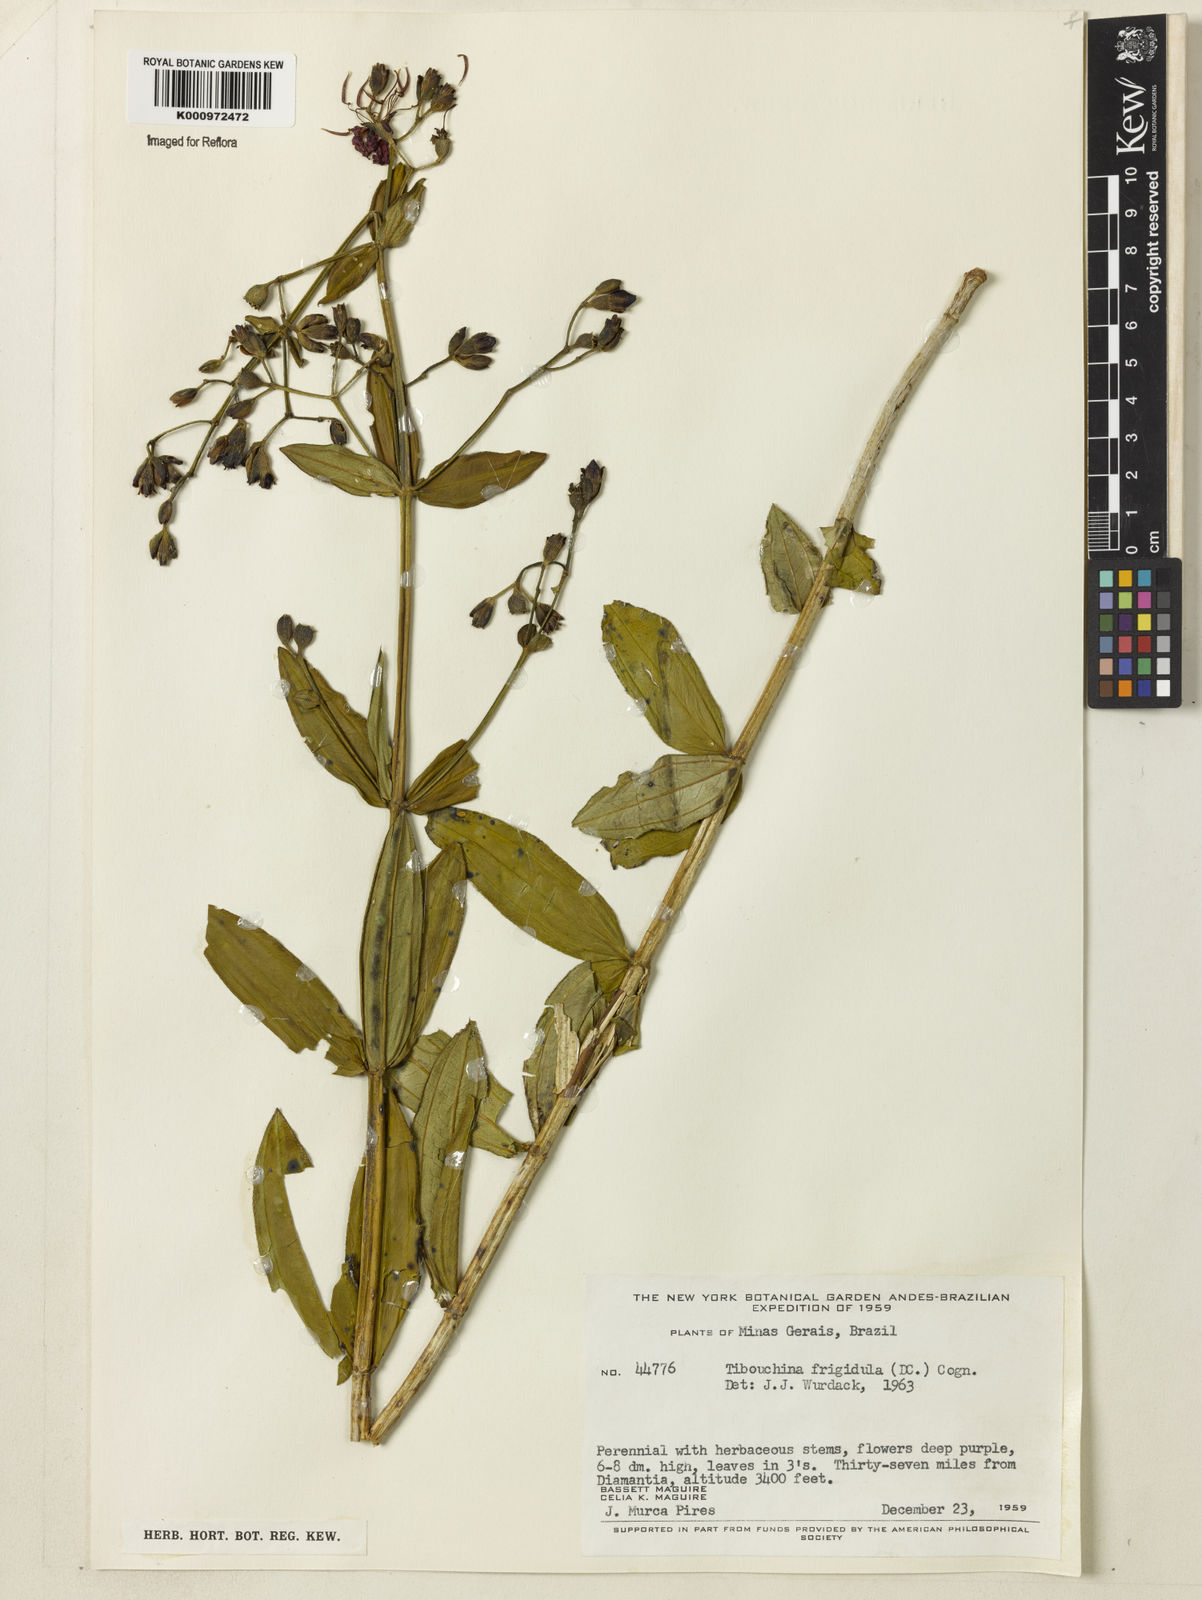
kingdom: Plantae
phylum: Tracheophyta
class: Magnoliopsida
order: Myrtales
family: Melastomataceae
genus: Pleroma
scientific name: Pleroma martiusianum
